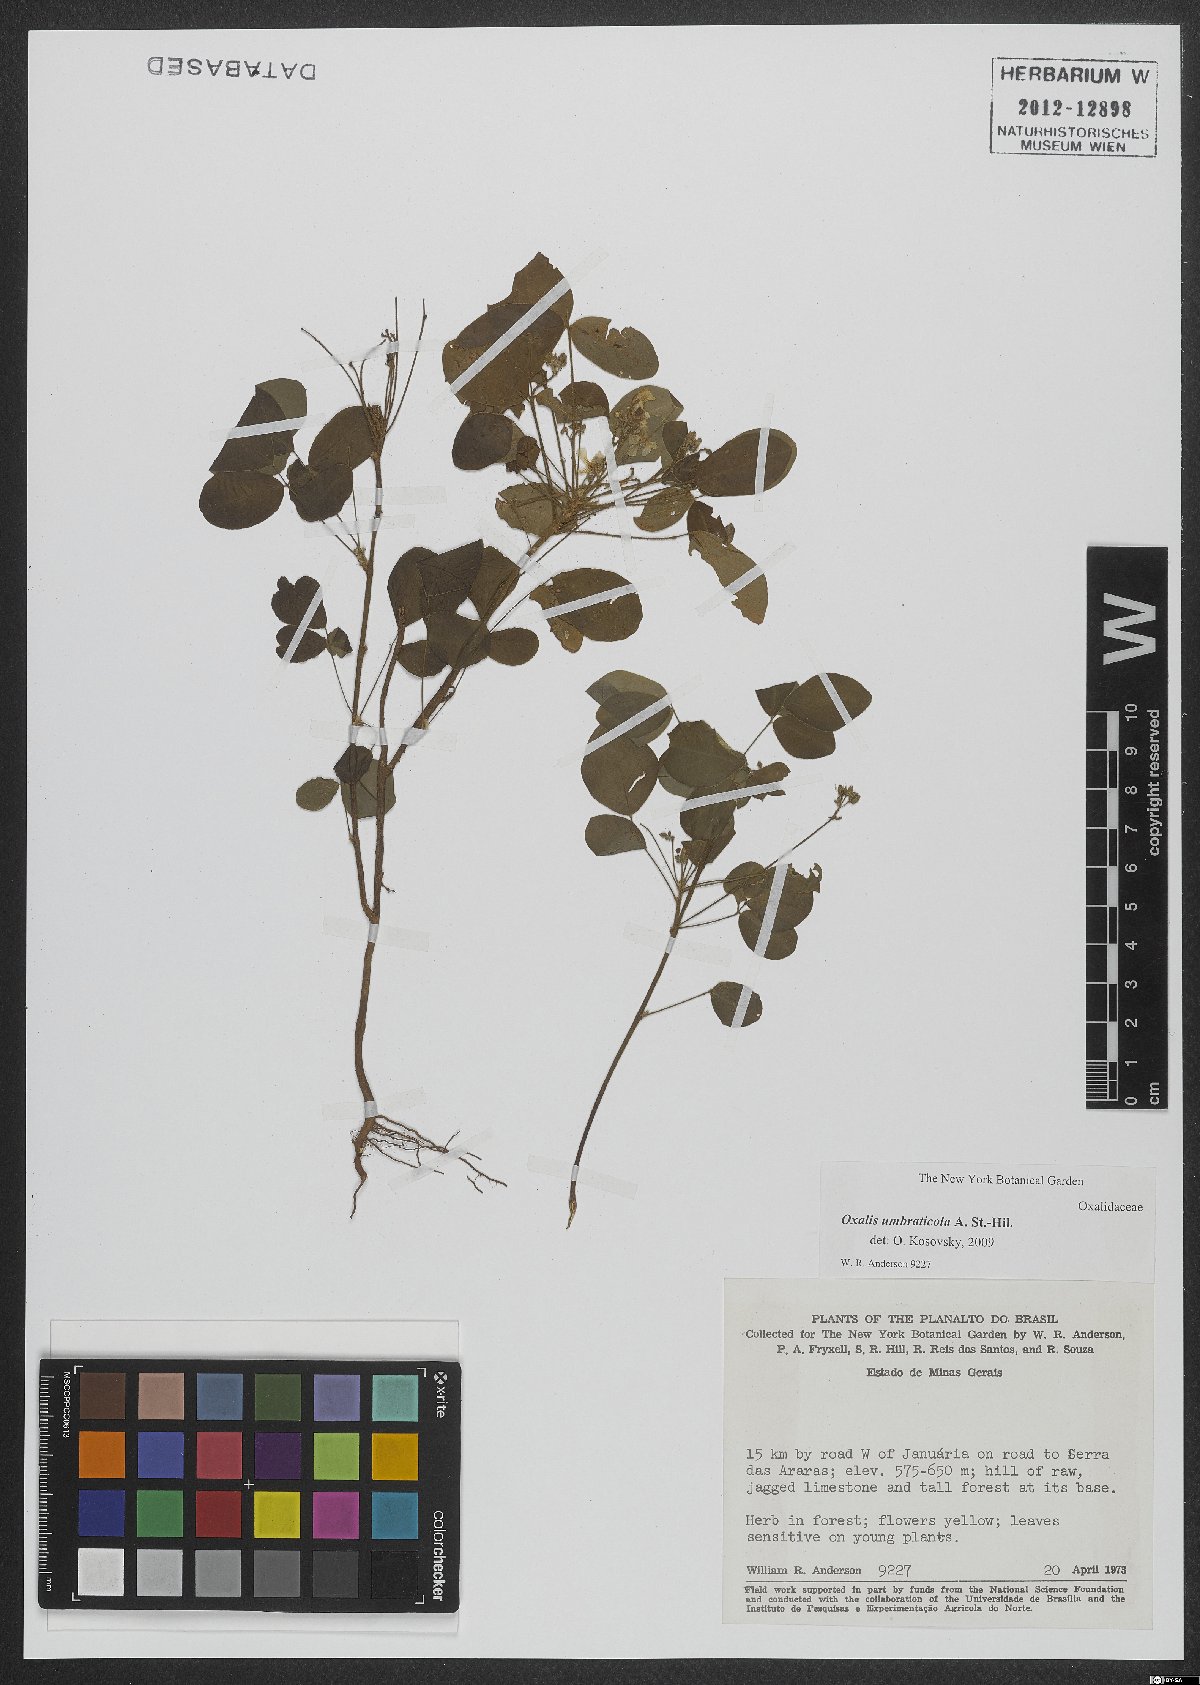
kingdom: Plantae
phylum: Tracheophyta
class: Magnoliopsida
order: Oxalidales
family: Oxalidaceae
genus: Oxalis
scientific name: Oxalis umbraticola
